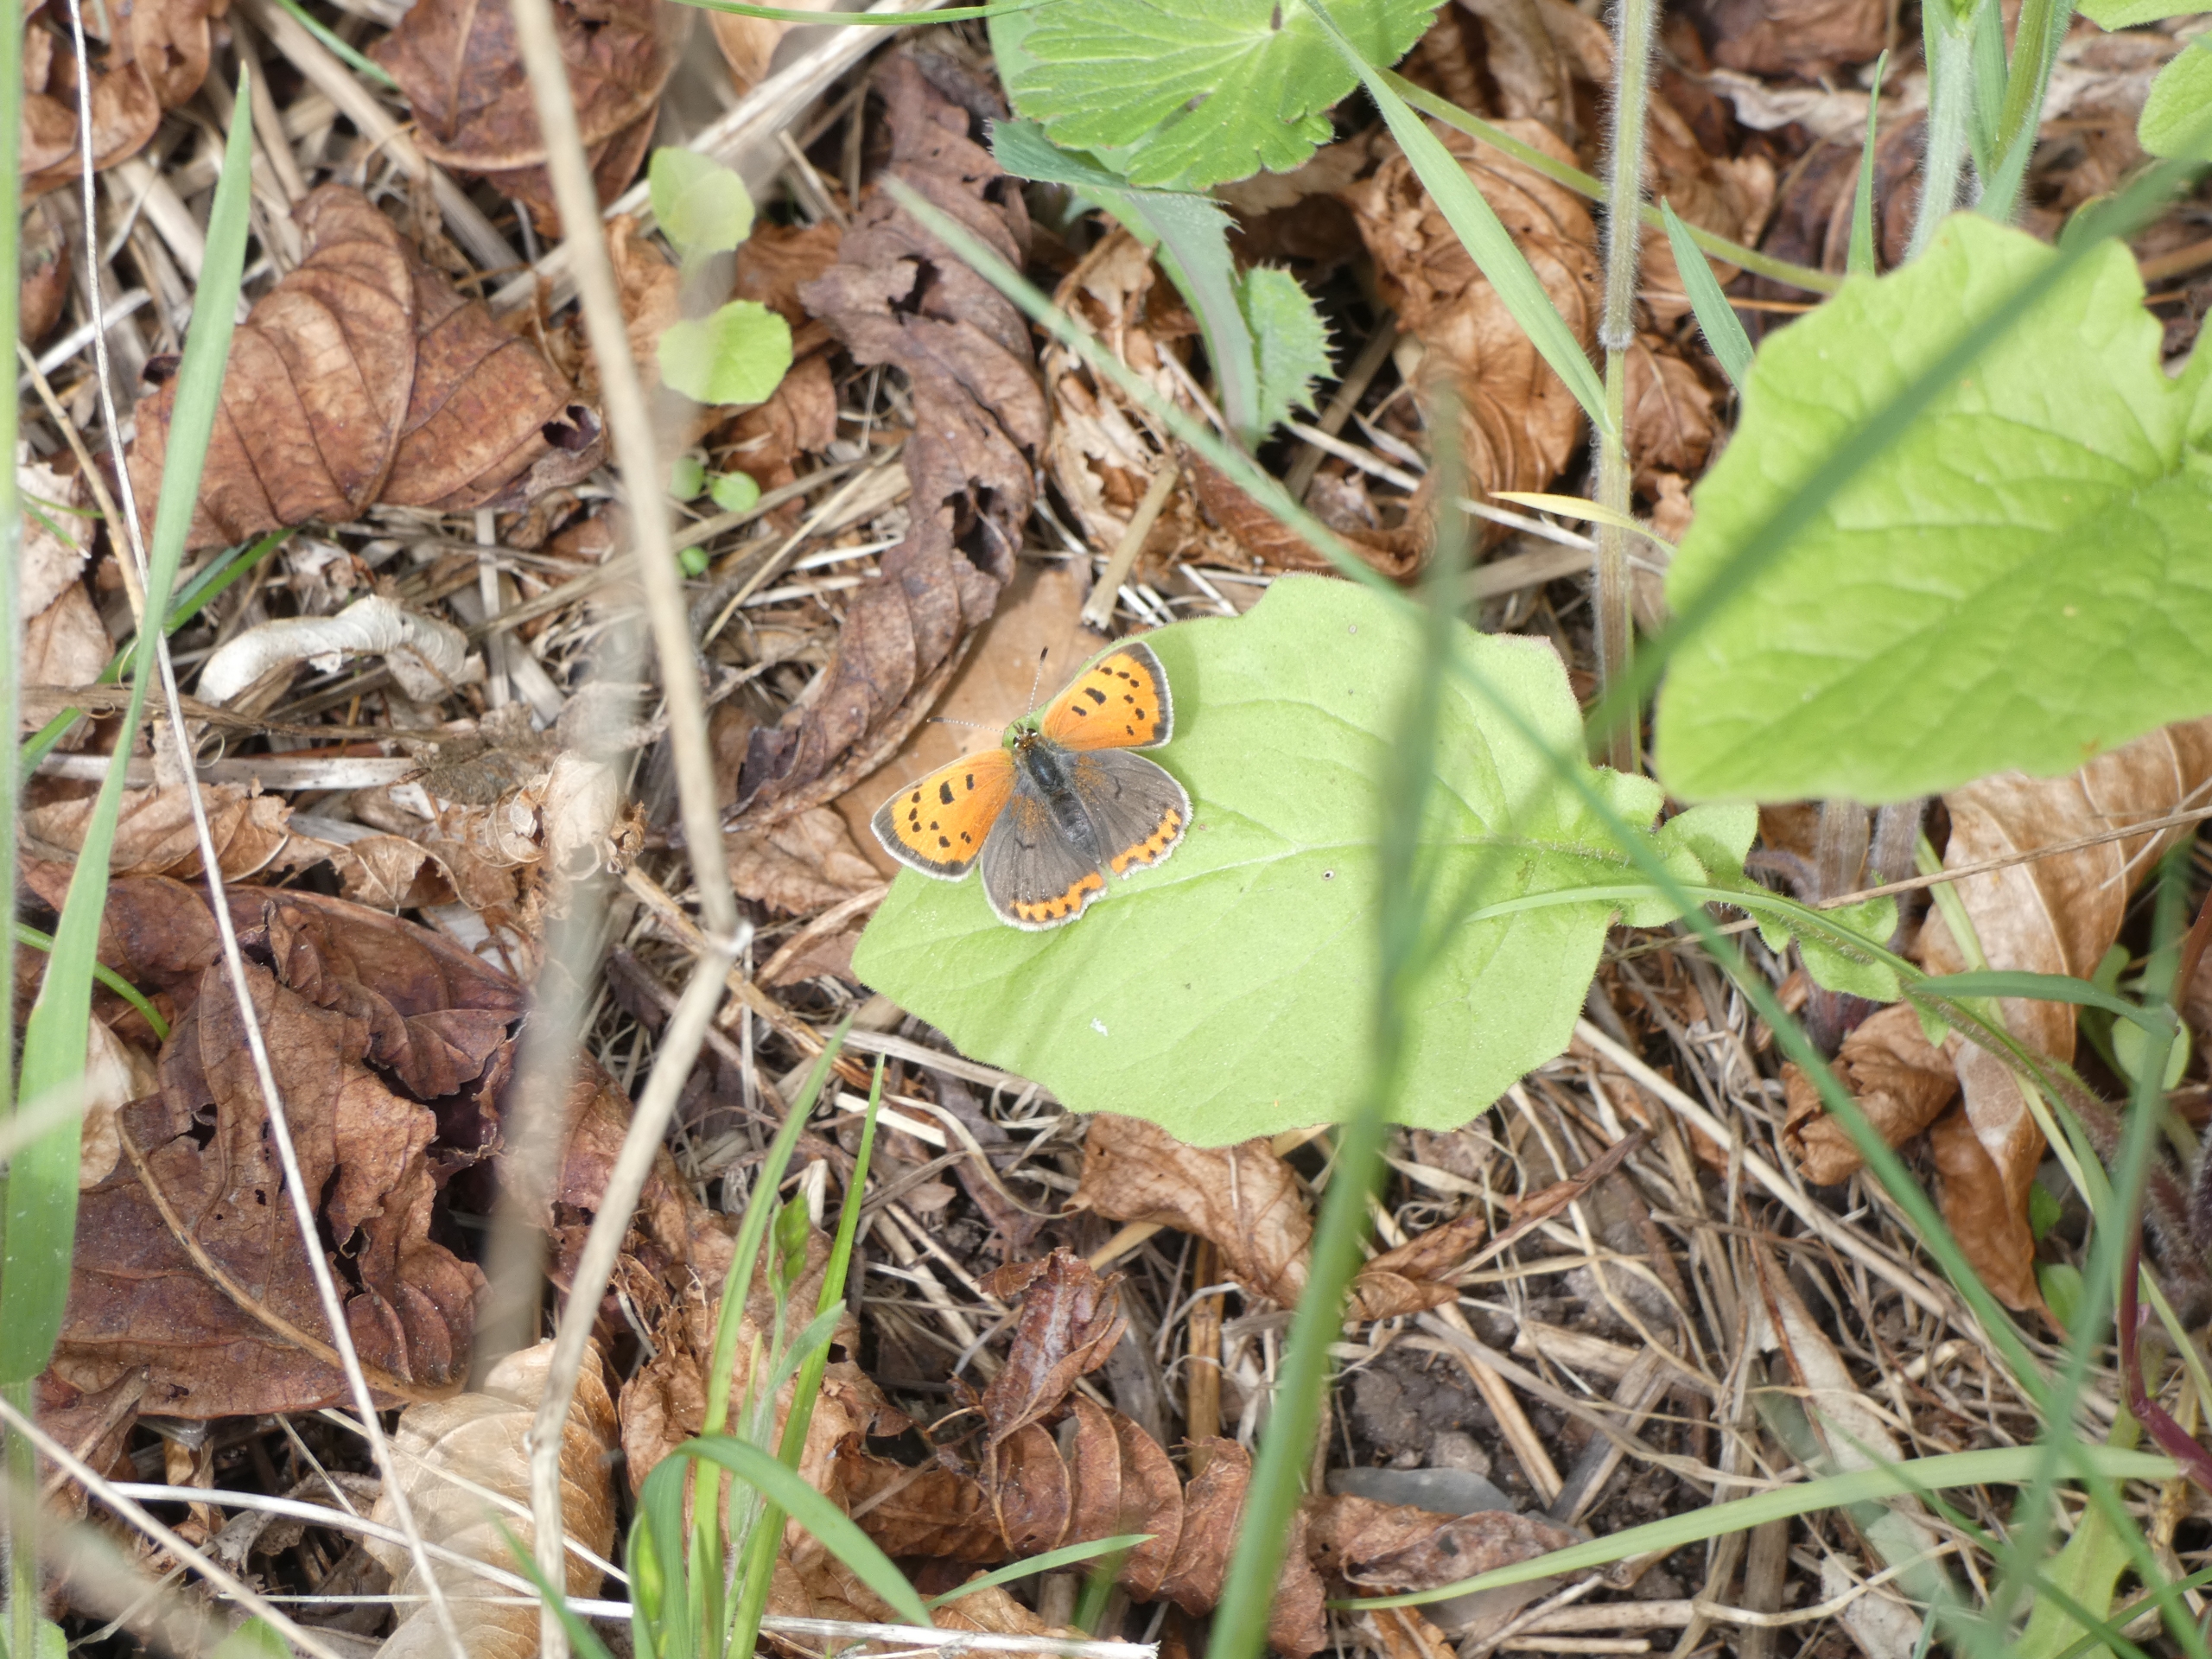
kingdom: Animalia
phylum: Arthropoda
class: Insecta
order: Lepidoptera
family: Lycaenidae
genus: Lycaena
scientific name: Lycaena phlaeas
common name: Lille ildfugl
